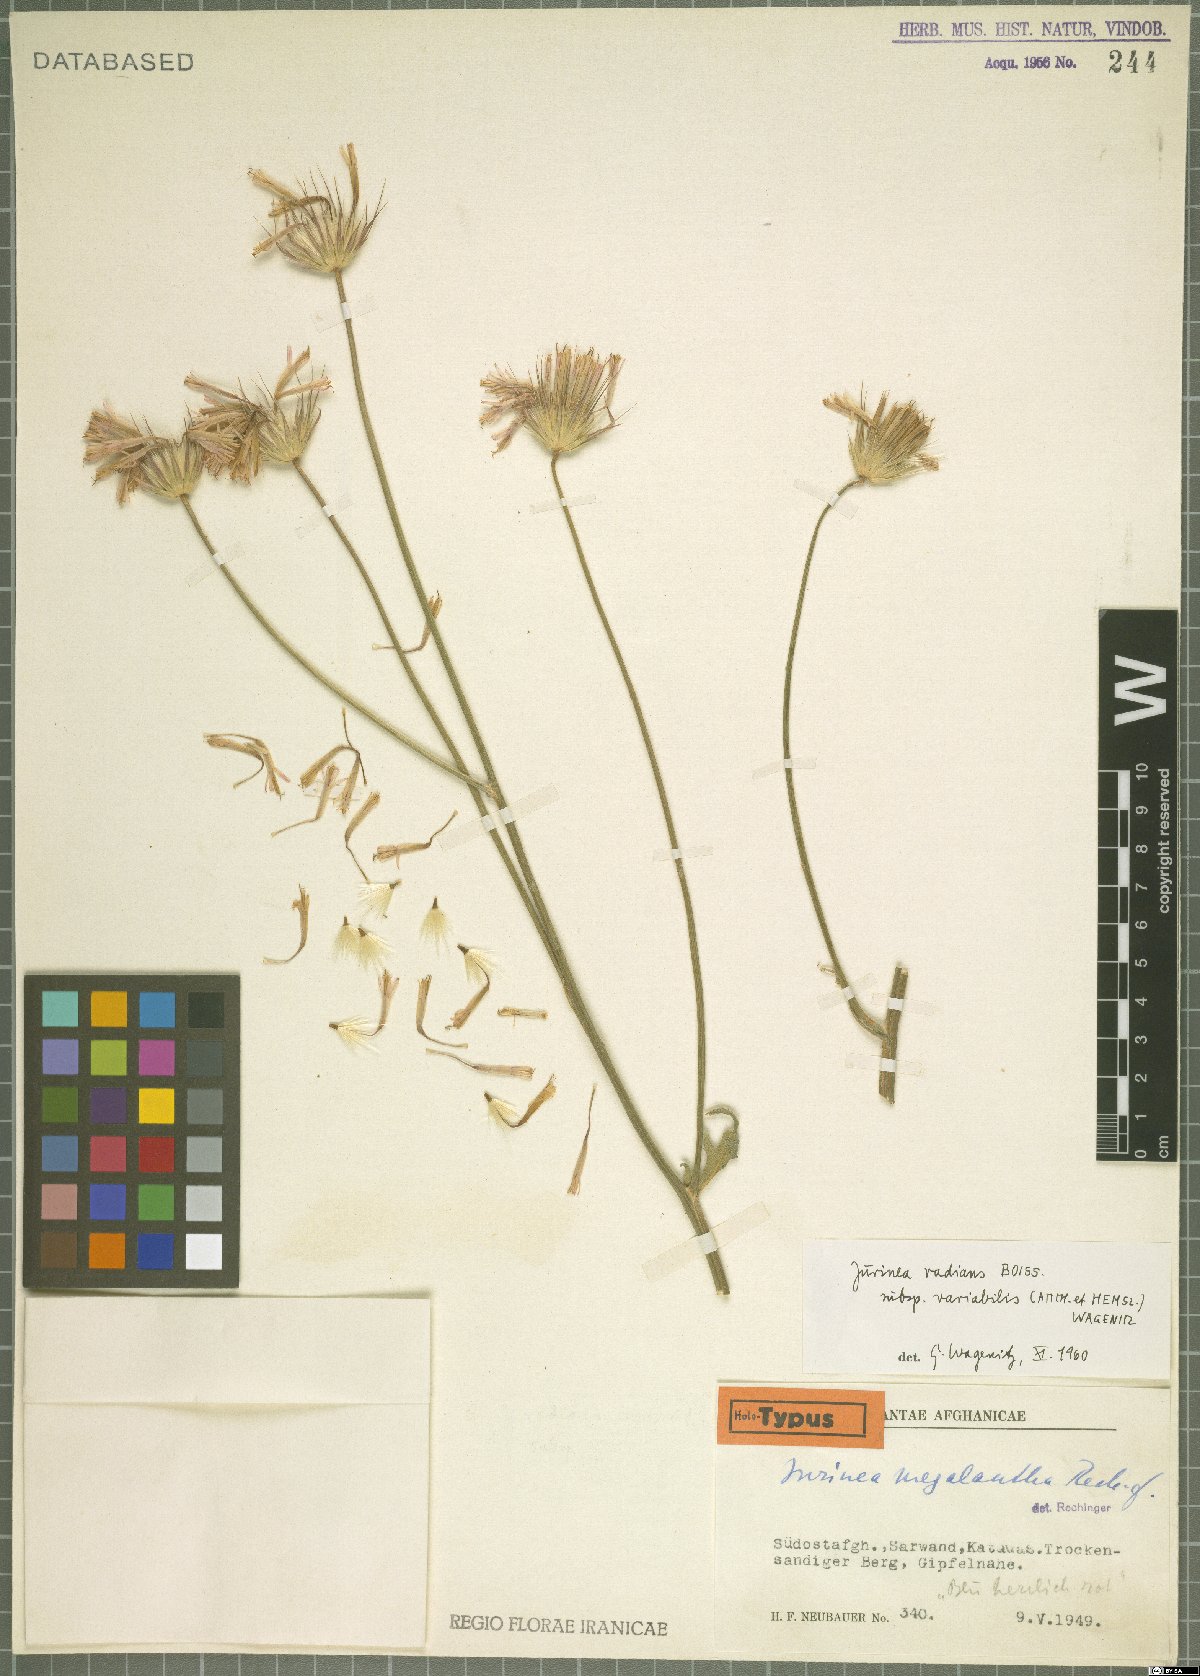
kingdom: Plantae
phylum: Tracheophyta
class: Magnoliopsida
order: Asterales
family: Asteraceae
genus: Jurinea
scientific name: Jurinea radians
